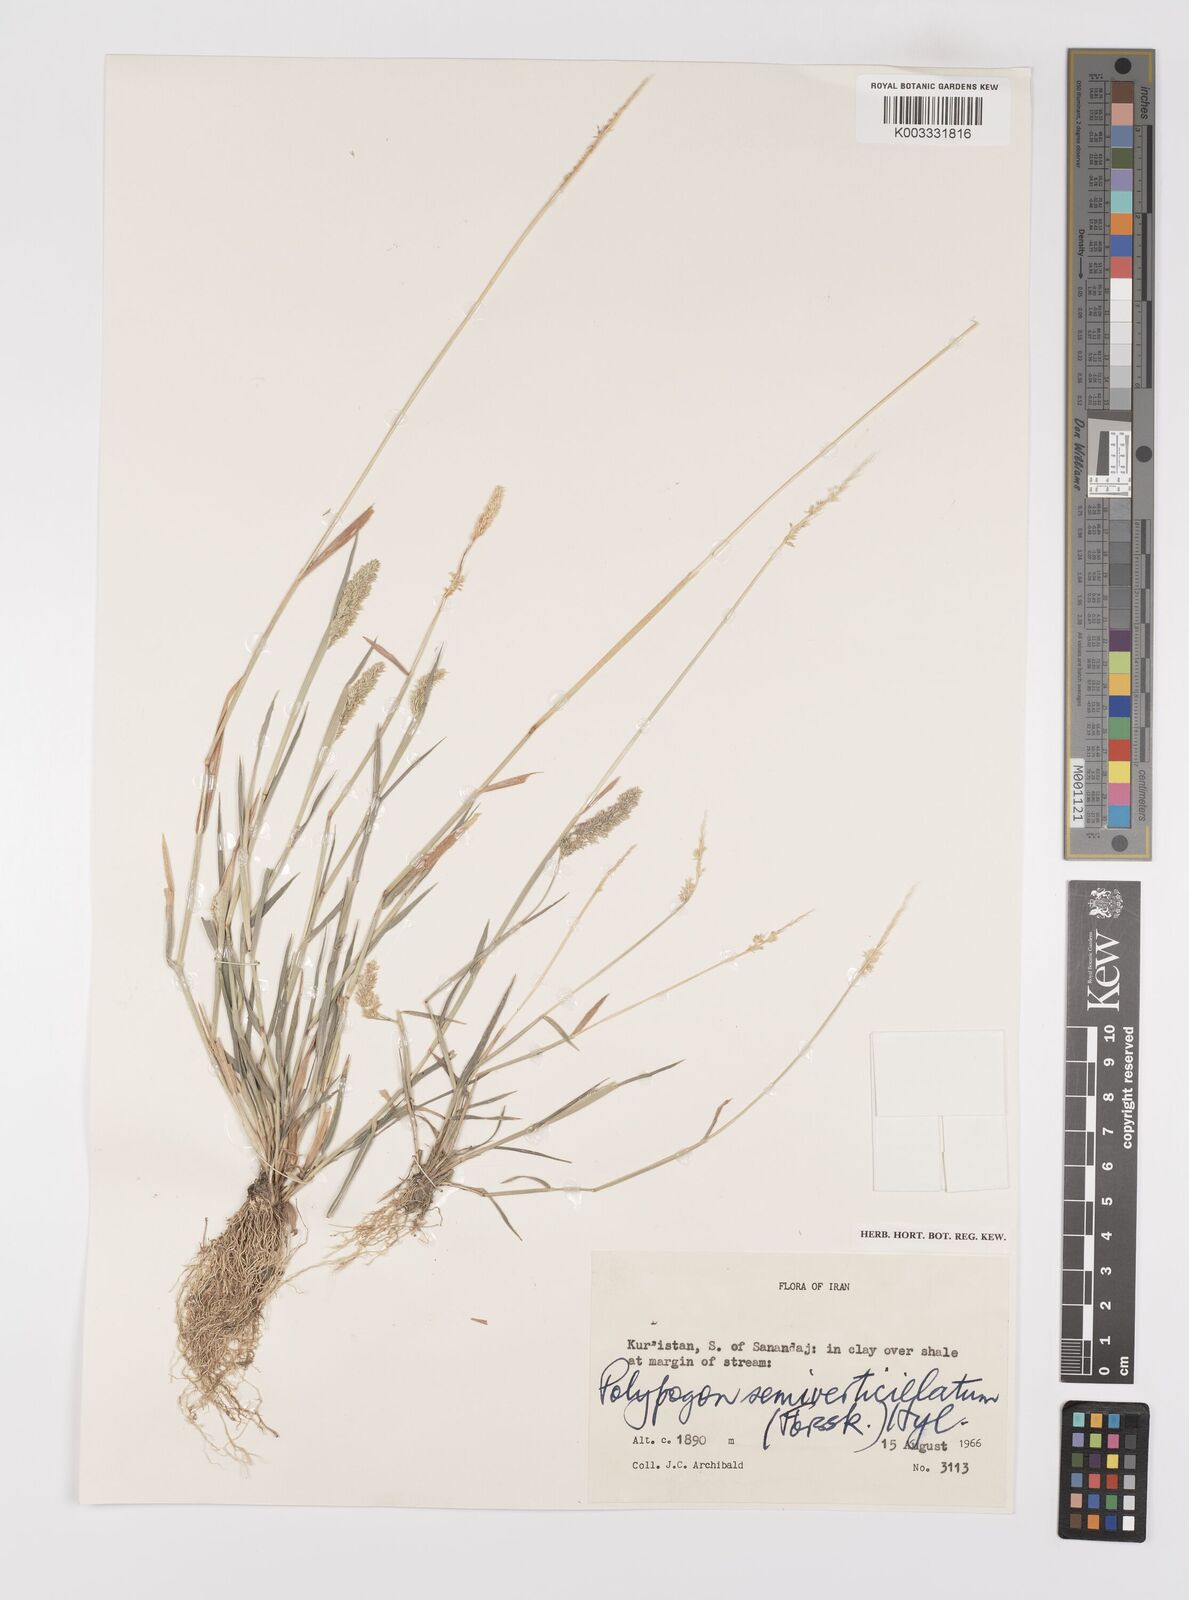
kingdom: Plantae
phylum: Tracheophyta
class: Liliopsida
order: Poales
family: Poaceae
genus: Polypogon
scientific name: Polypogon viridis
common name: Water bent
